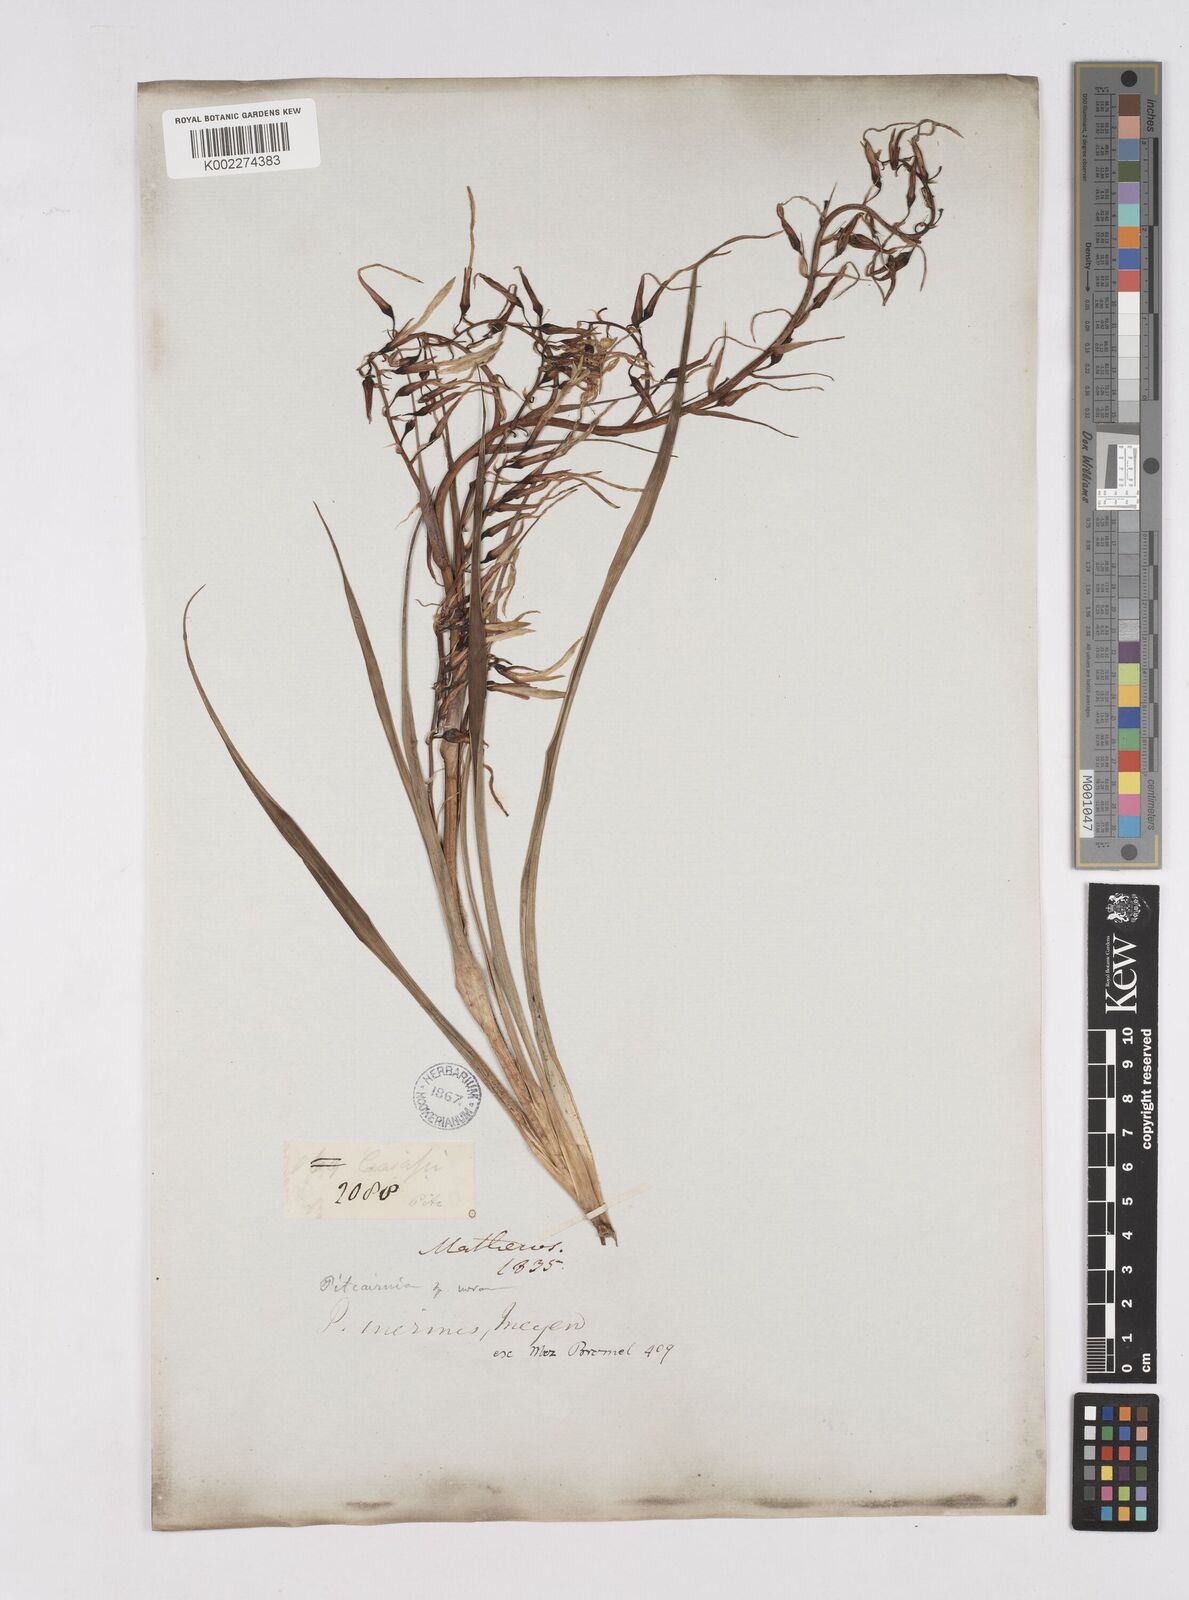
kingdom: Plantae
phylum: Tracheophyta
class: Liliopsida
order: Poales
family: Bromeliaceae
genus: Pitcairnia
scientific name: Pitcairnia inermis
